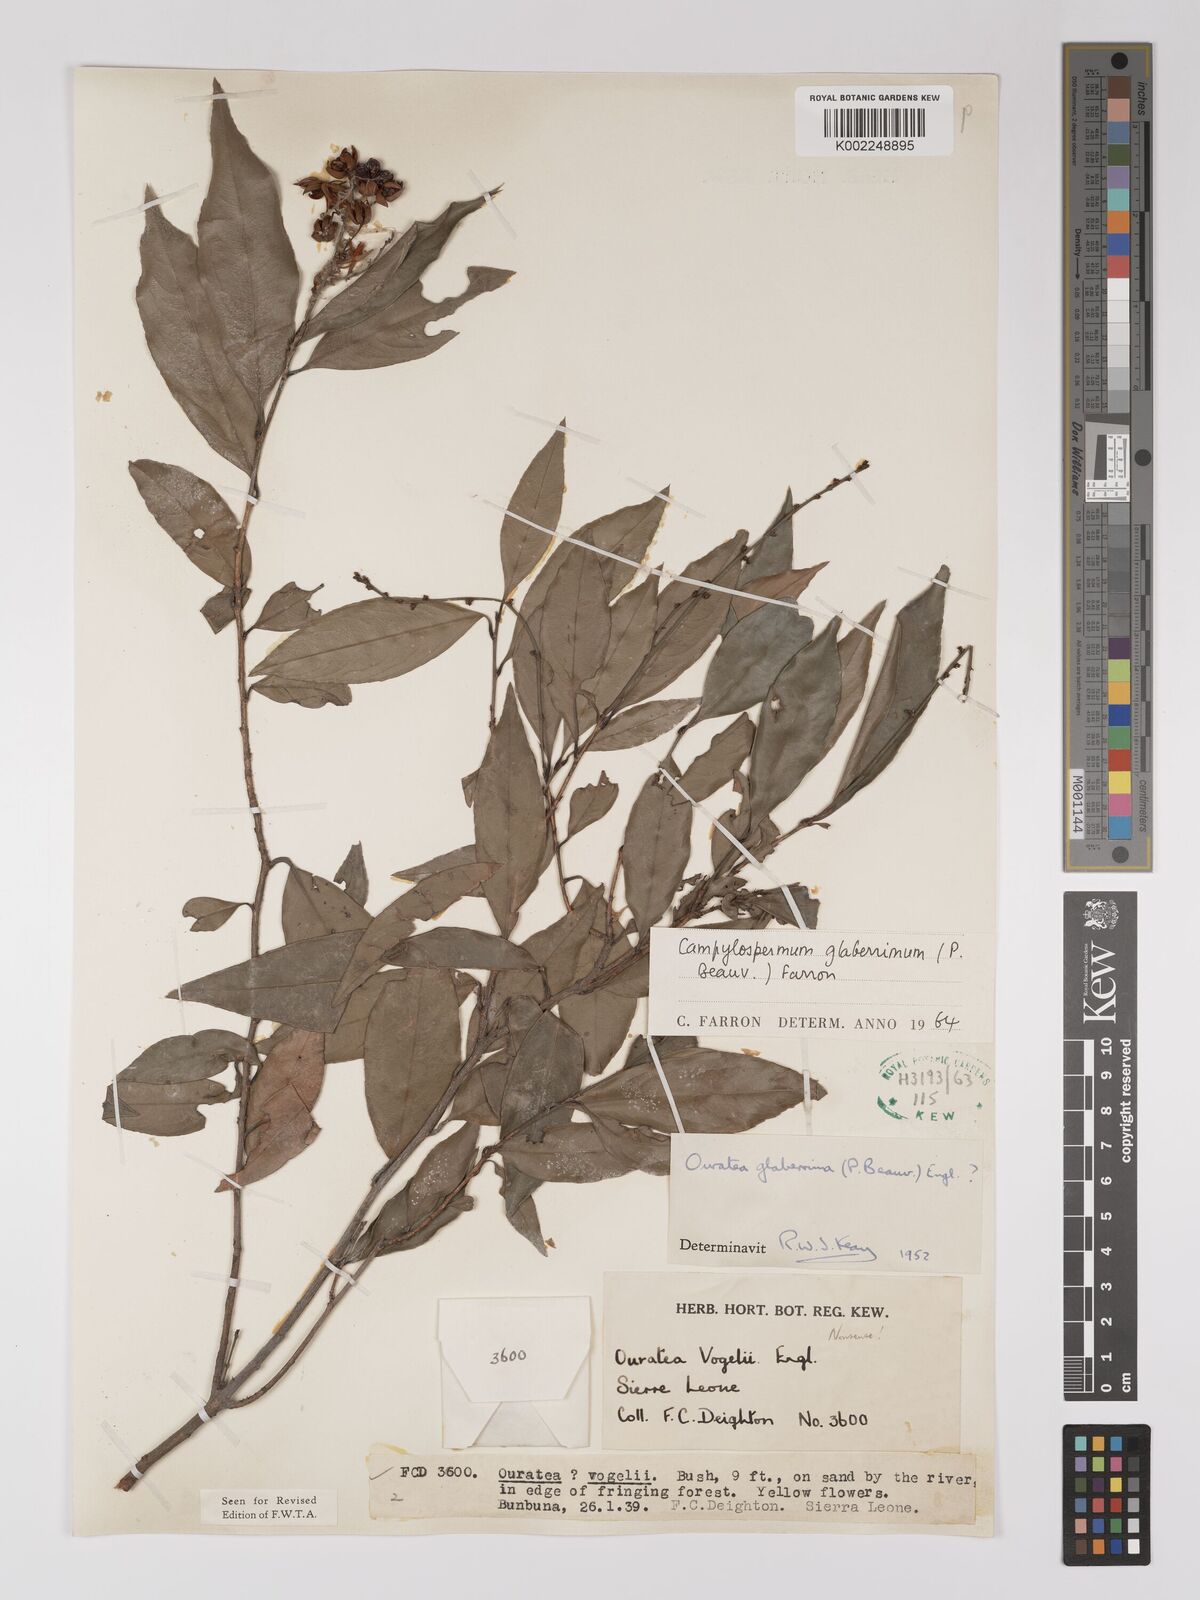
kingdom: Plantae
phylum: Tracheophyta
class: Magnoliopsida
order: Malpighiales
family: Ochnaceae
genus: Campylospermum
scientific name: Campylospermum glaberrimum
